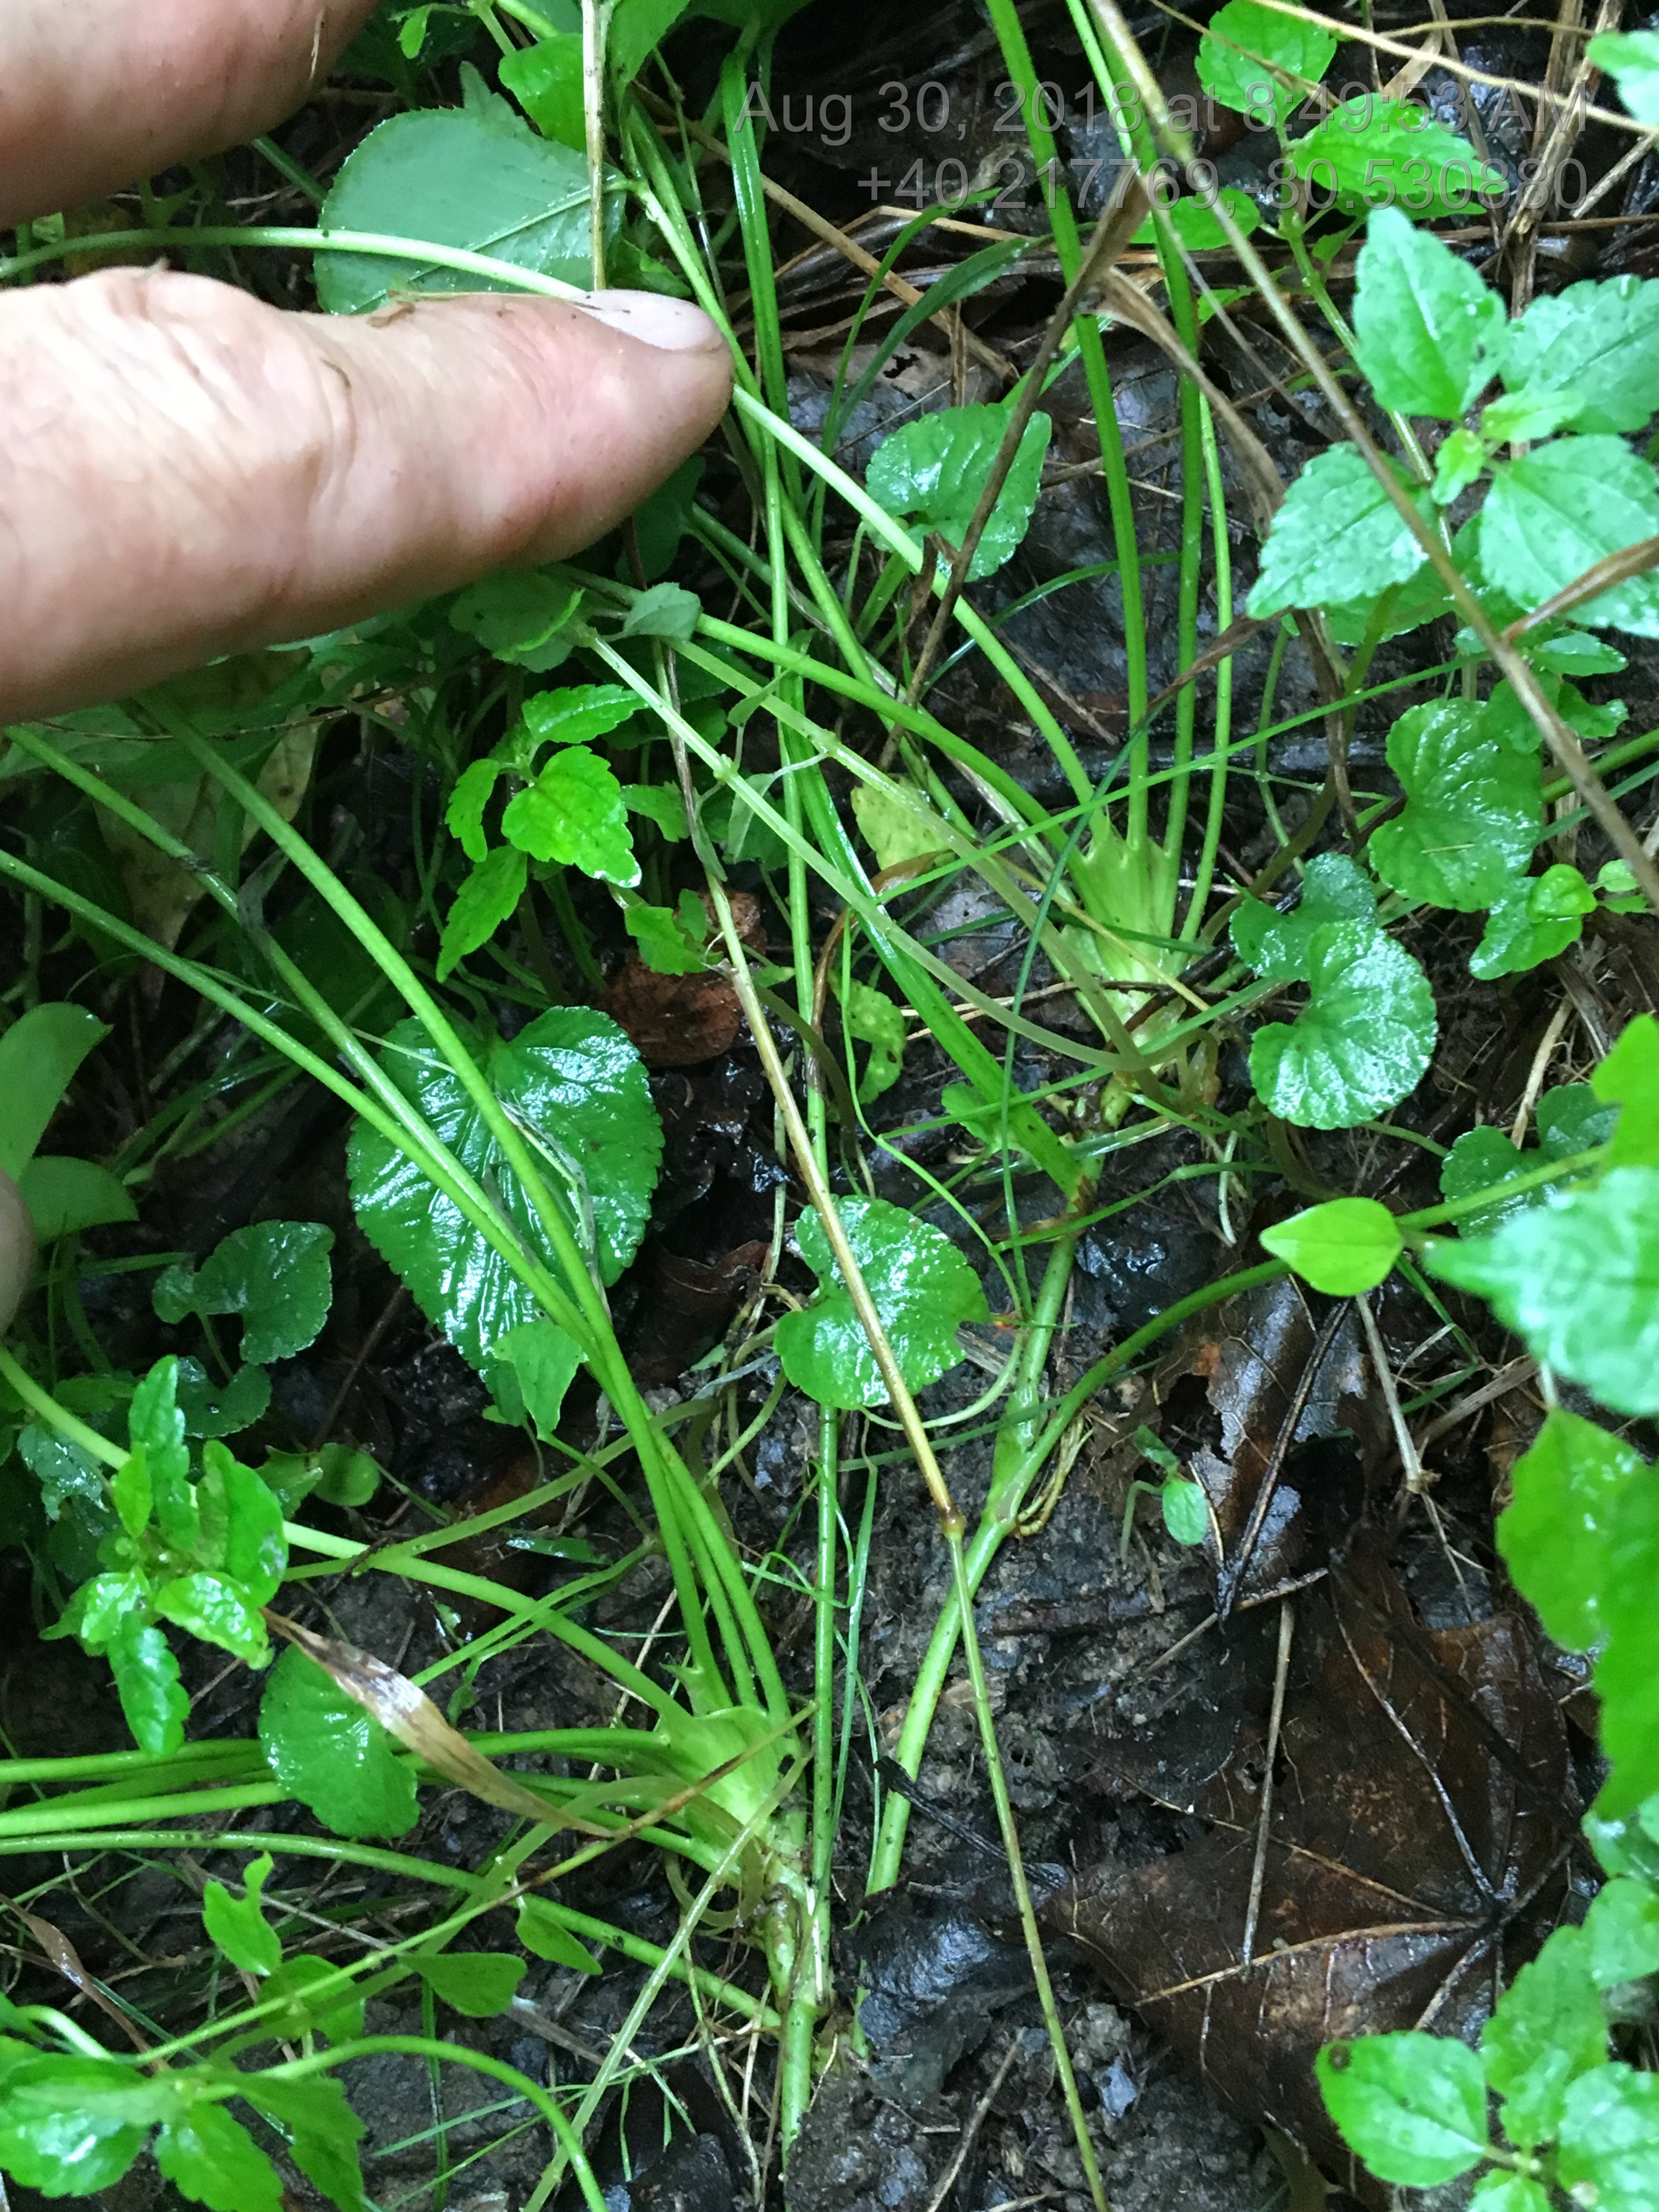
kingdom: Plantae
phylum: Tracheophyta
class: Magnoliopsida
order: Fabales
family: Fabaceae
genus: Trifolium
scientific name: Trifolium stoloniferum
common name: Running Buffalo Clover
